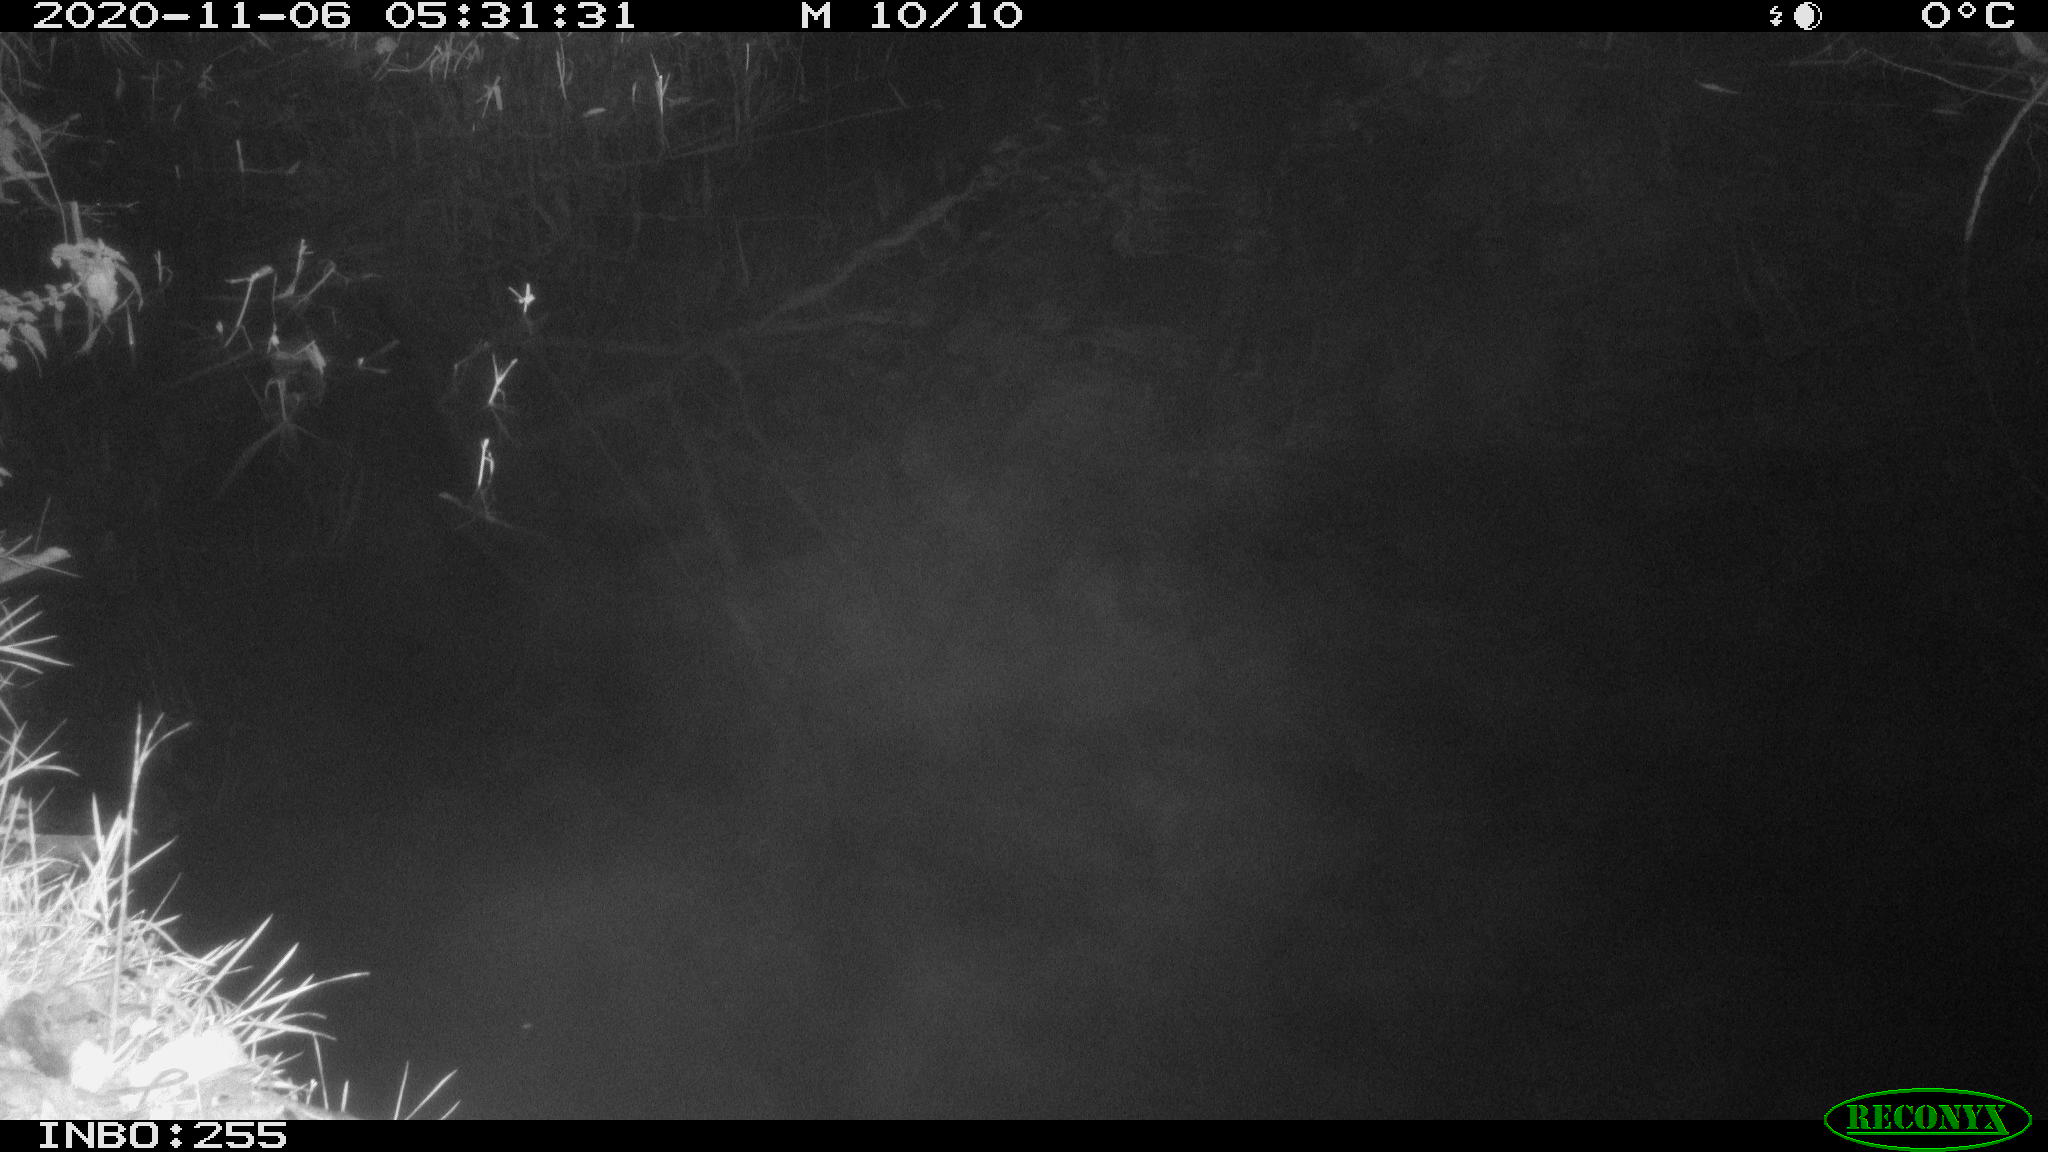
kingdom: Animalia
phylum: Chordata
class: Mammalia
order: Rodentia
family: Muridae
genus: Rattus
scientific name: Rattus norvegicus
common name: Brown rat
